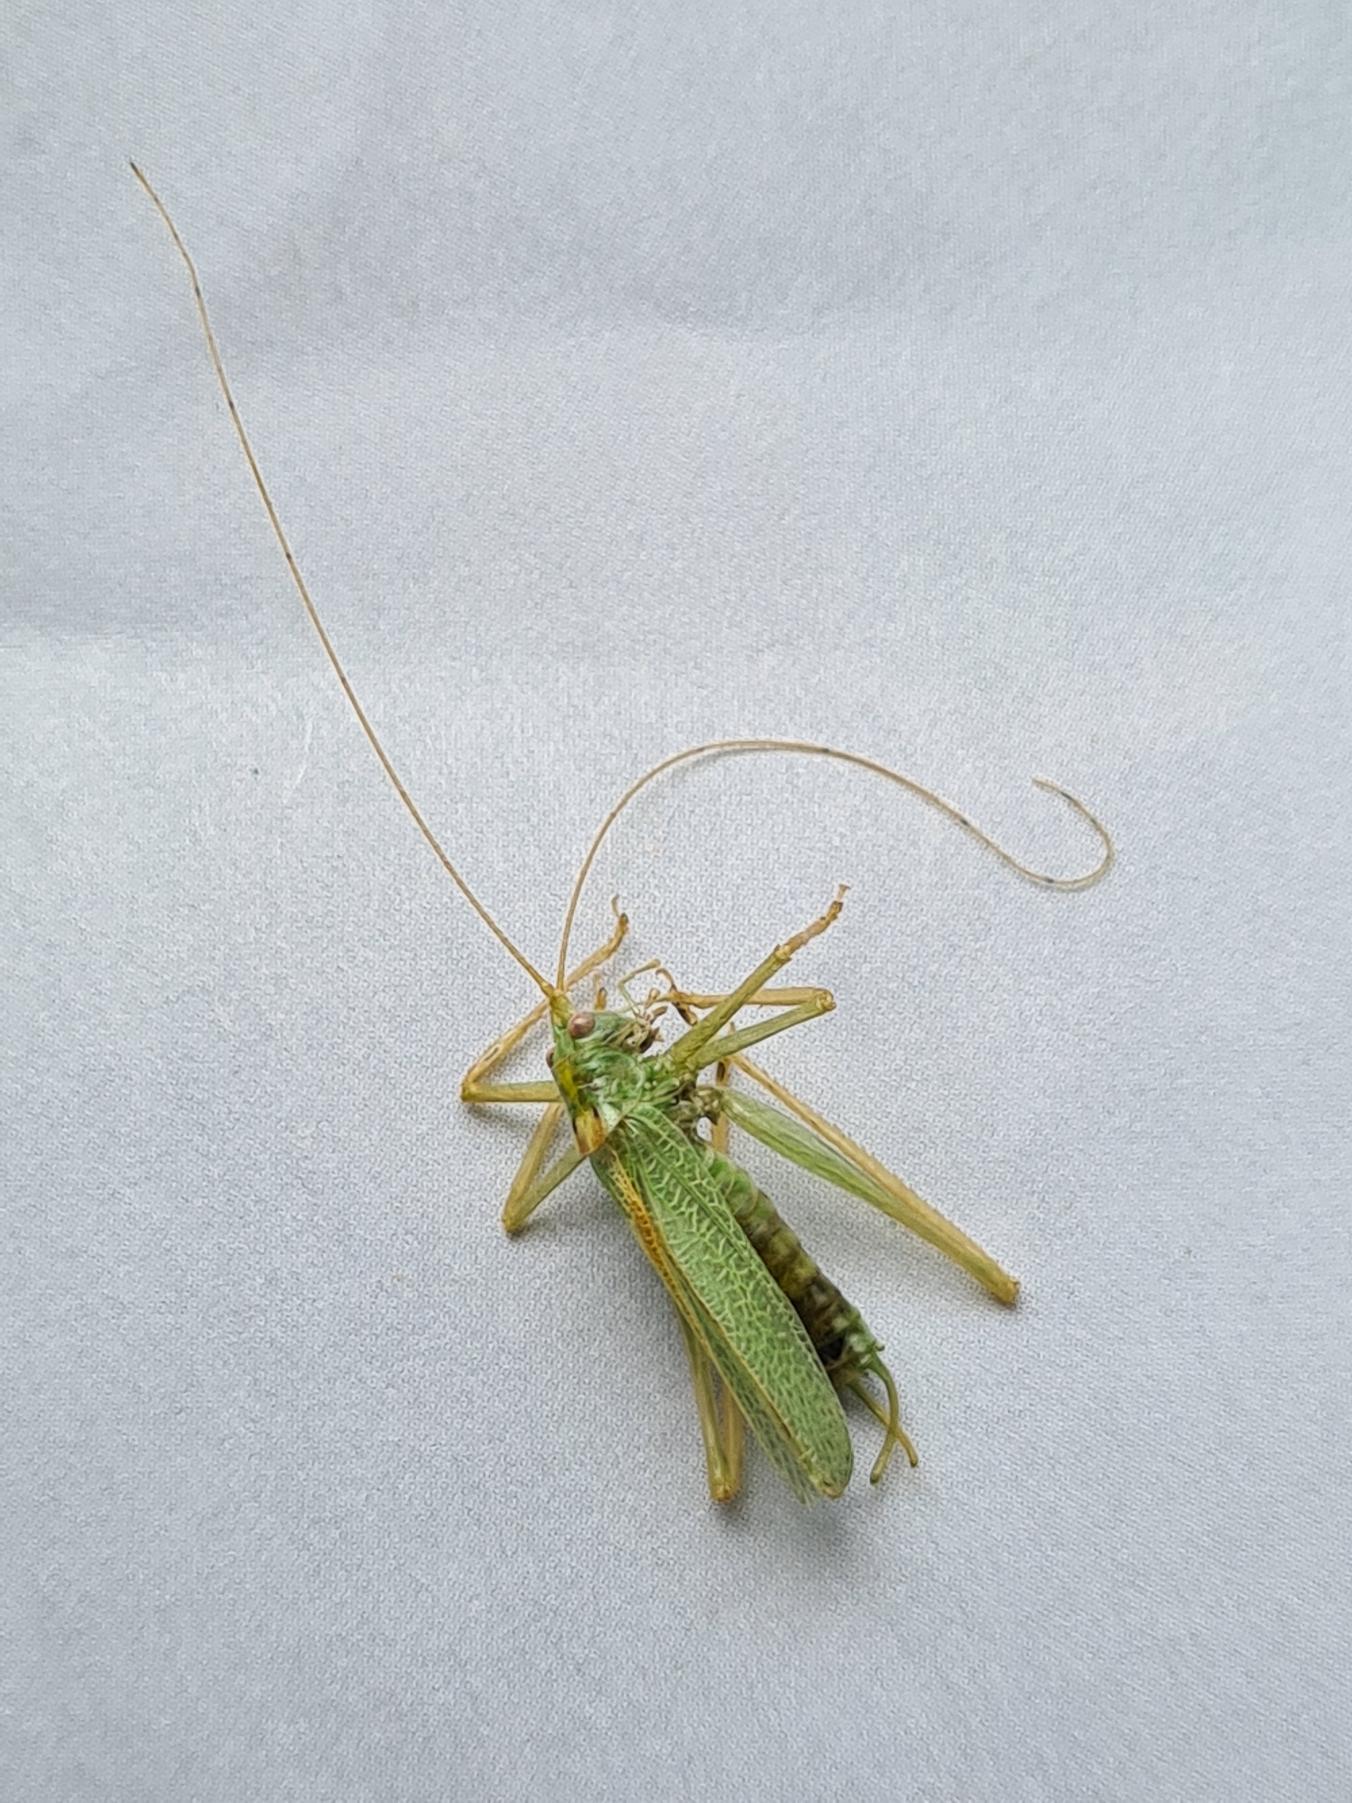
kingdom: Animalia
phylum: Arthropoda
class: Insecta
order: Orthoptera
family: Tettigoniidae
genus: Meconema
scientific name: Meconema thalassinum
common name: Egegræshoppe
